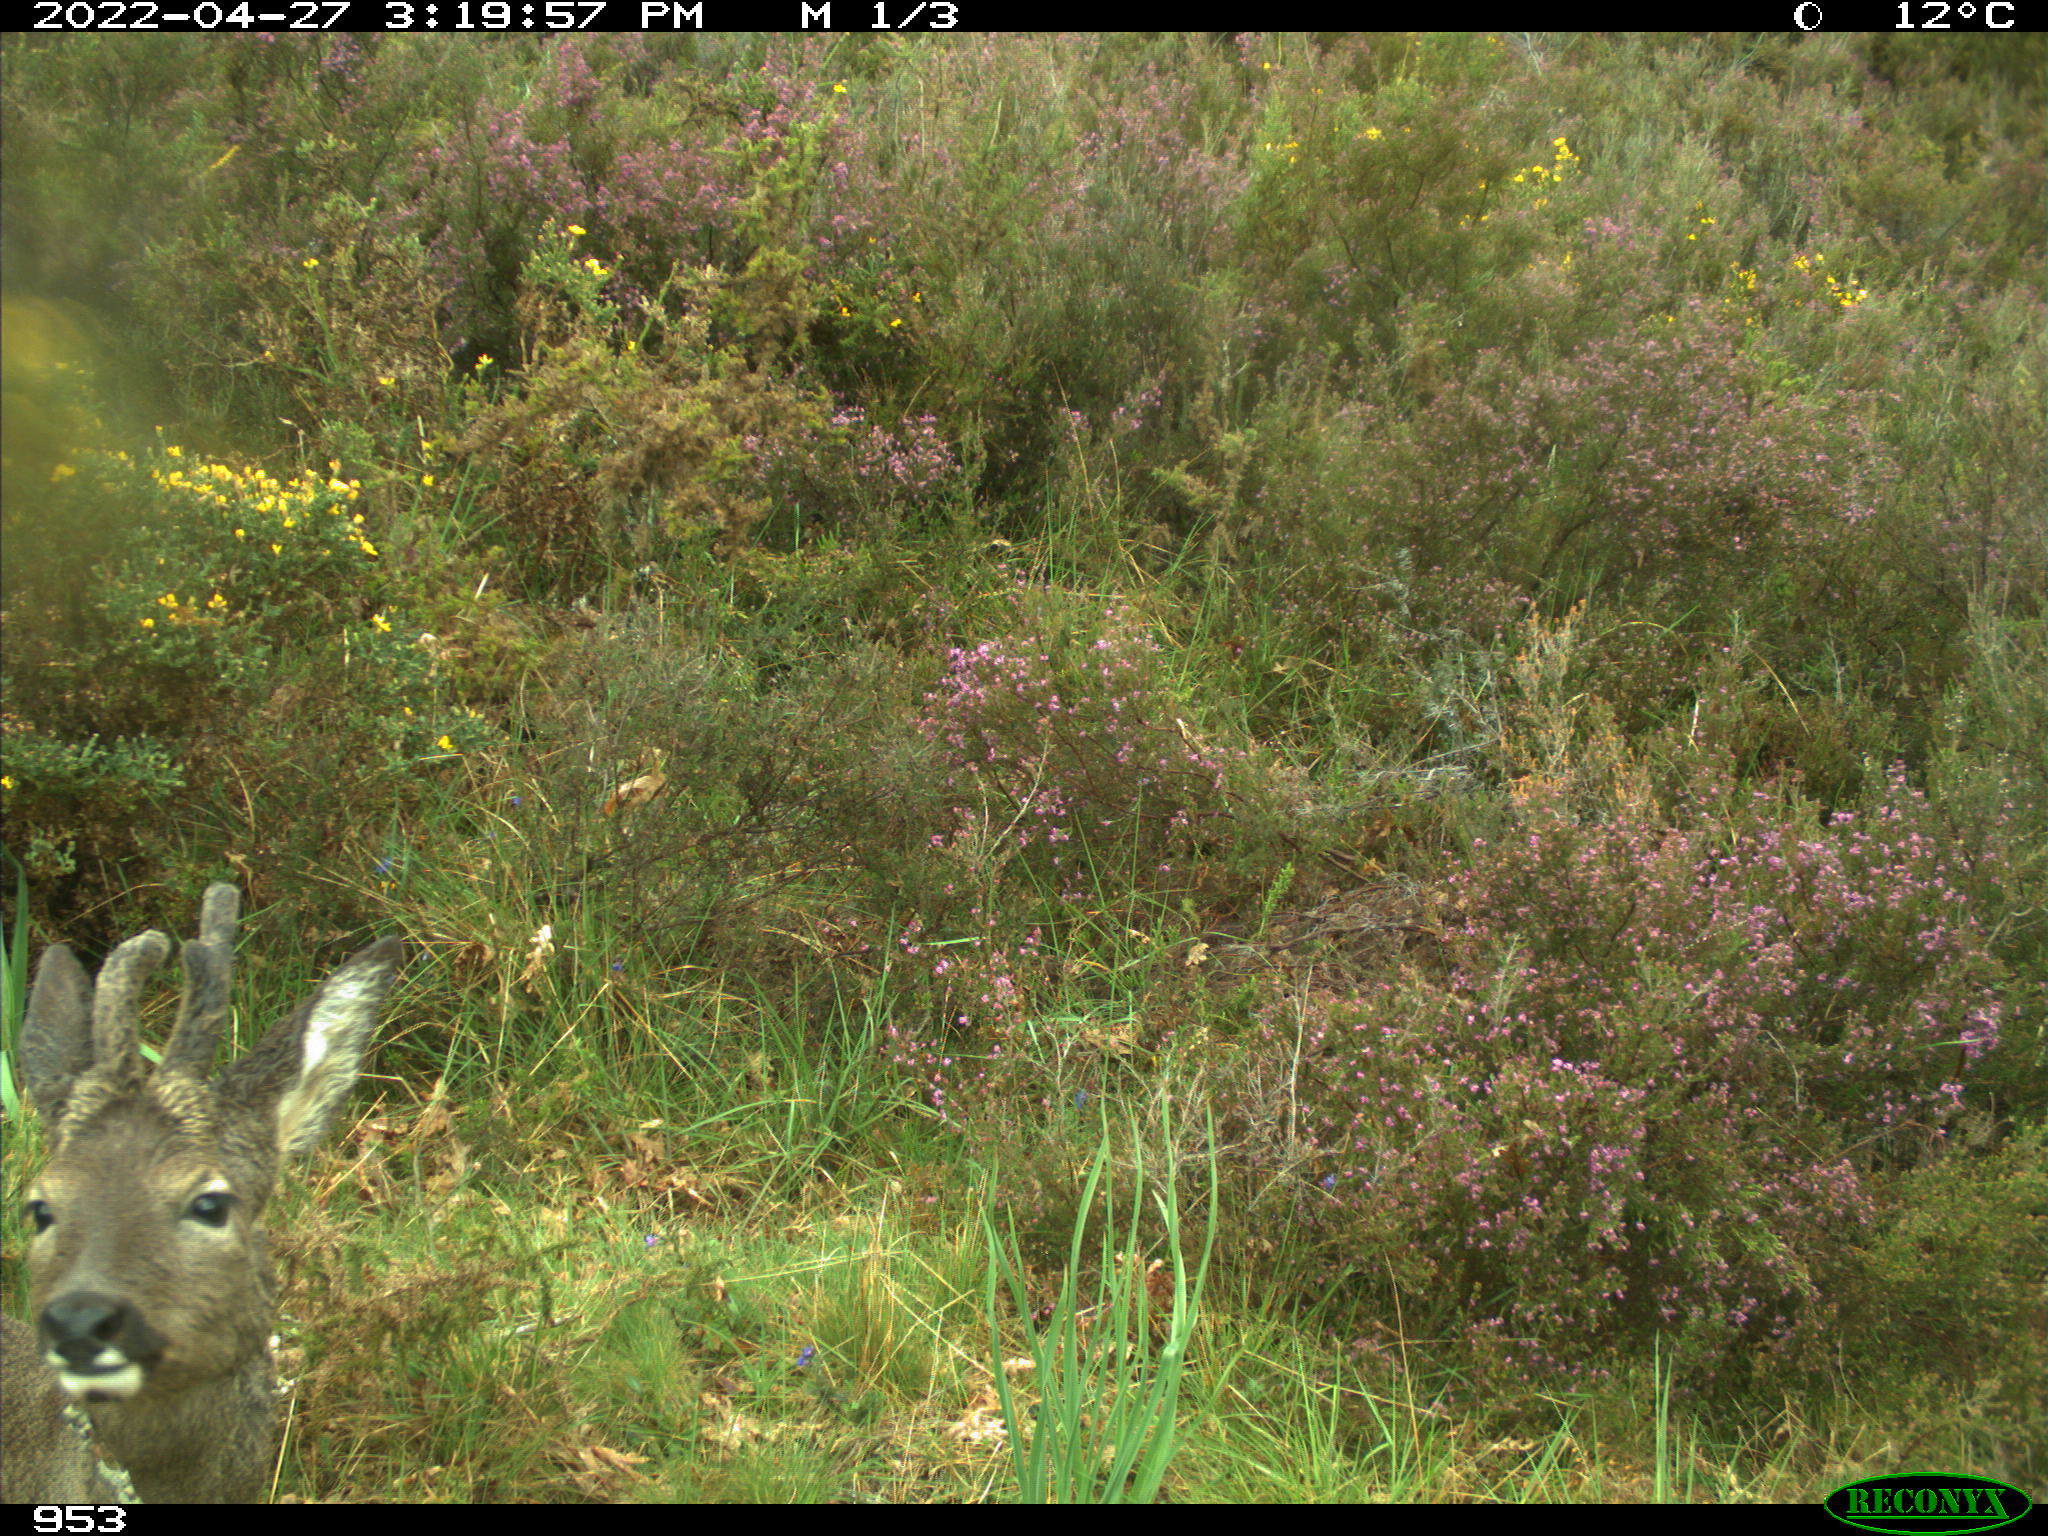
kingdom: Animalia
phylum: Chordata
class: Mammalia
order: Artiodactyla
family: Cervidae
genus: Capreolus
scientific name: Capreolus capreolus
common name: Western roe deer
